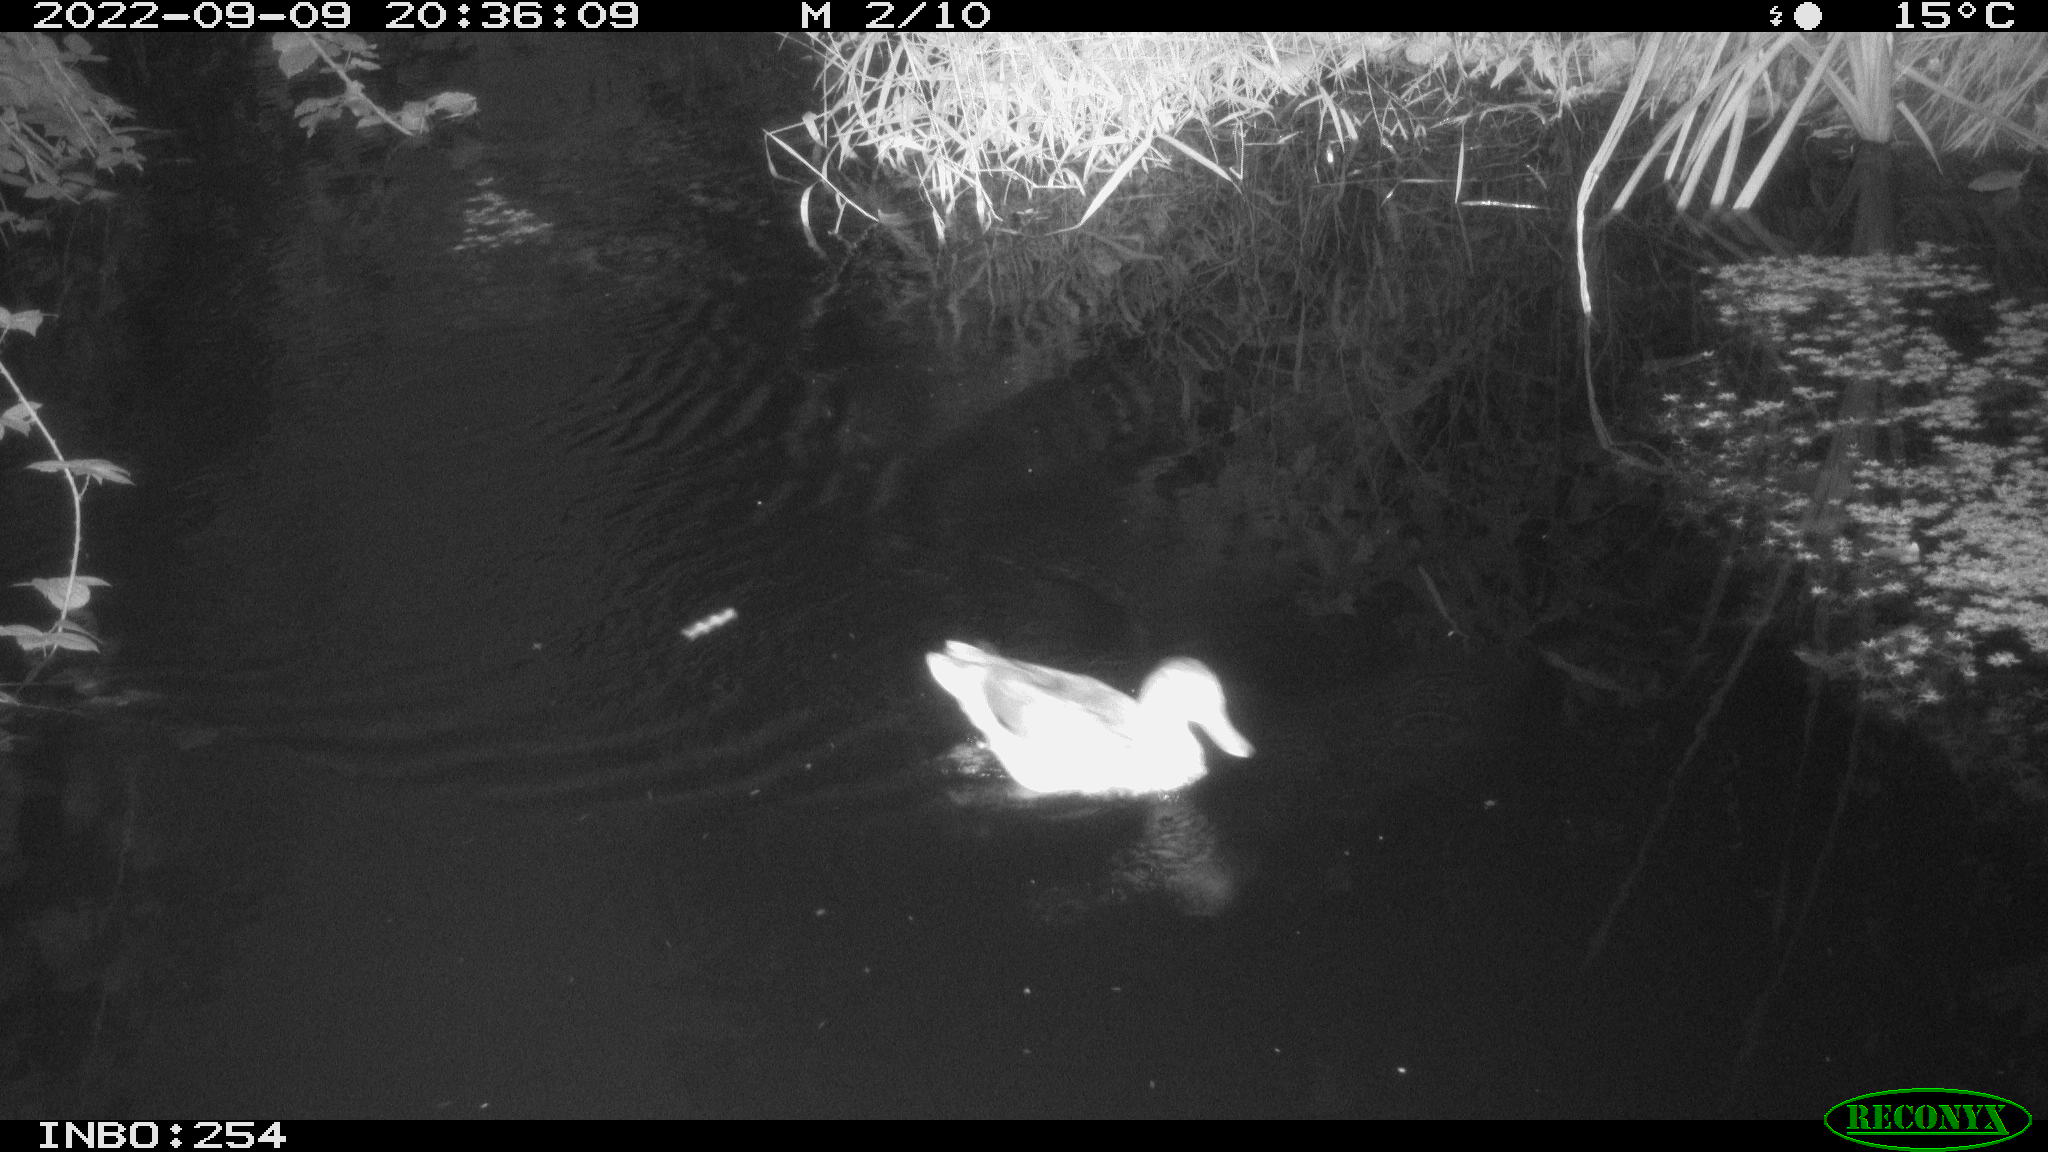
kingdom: Animalia
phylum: Chordata
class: Aves
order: Anseriformes
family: Anatidae
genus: Anas
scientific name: Anas
